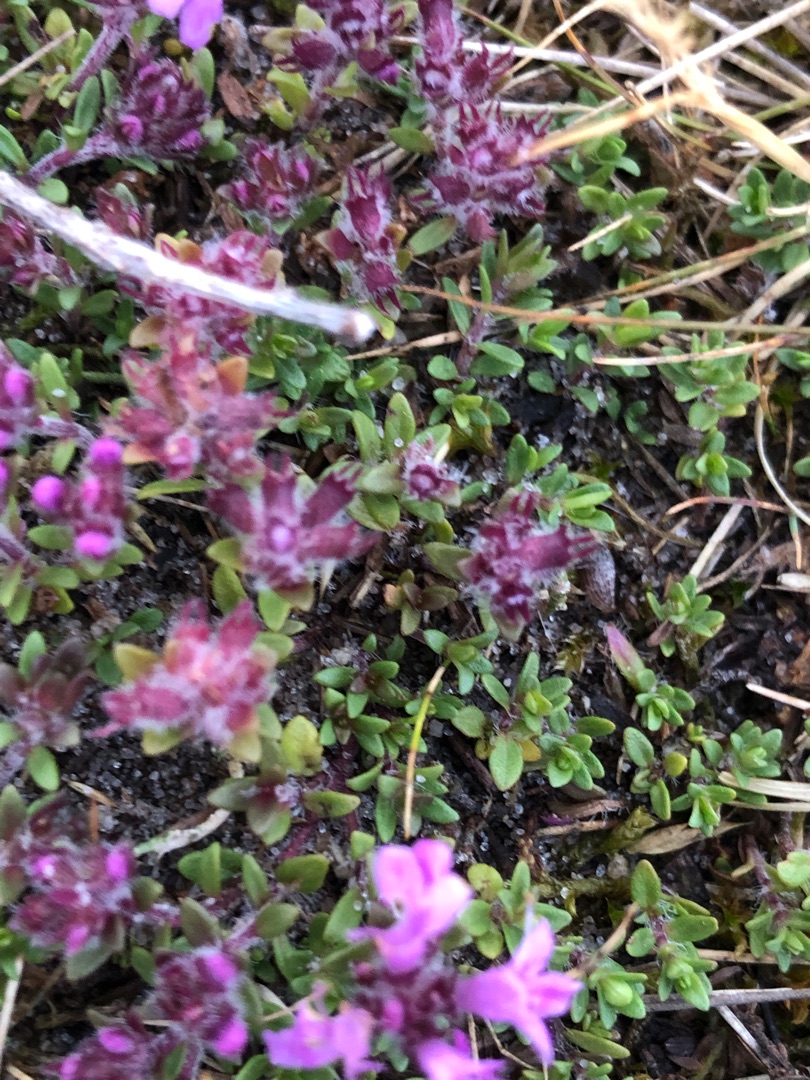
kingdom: Plantae
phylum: Tracheophyta
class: Magnoliopsida
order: Lamiales
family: Lamiaceae
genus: Thymus
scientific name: Thymus serpyllum
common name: Smalbladet timian
